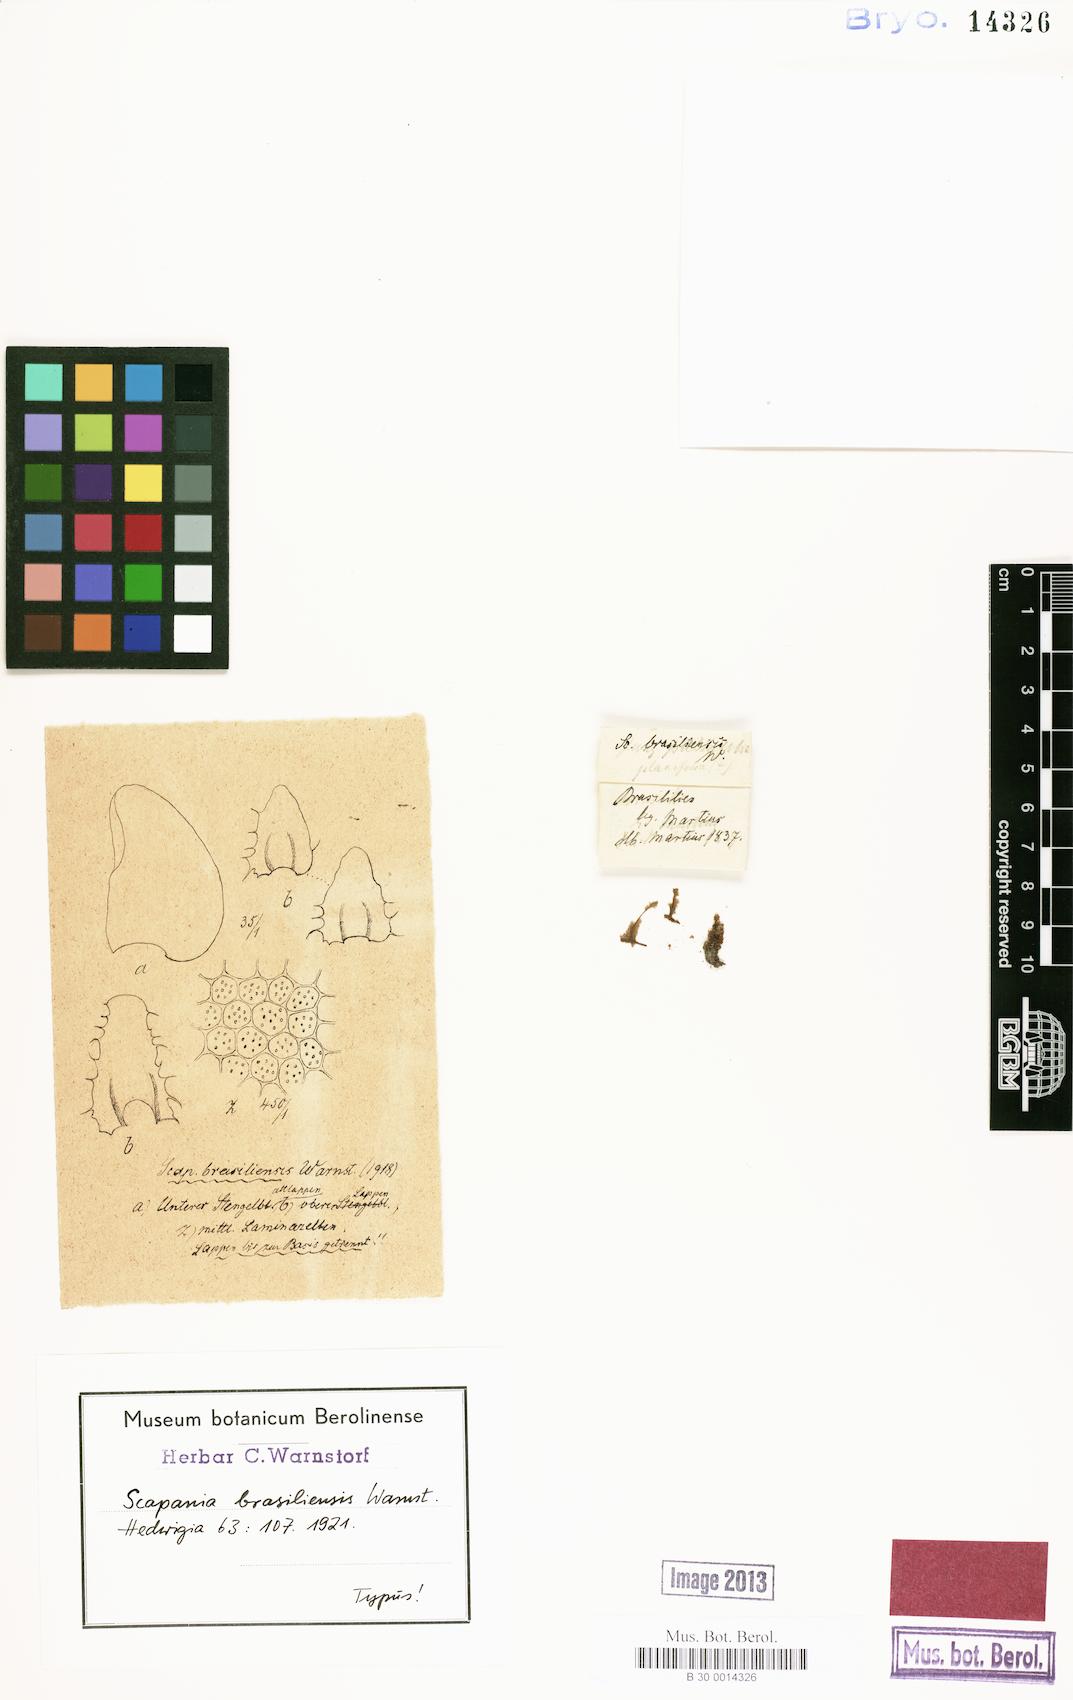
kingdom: Plantae
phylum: Marchantiophyta
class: Jungermanniopsida
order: Jungermanniales
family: Scapaniaceae
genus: Scapania
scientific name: Scapania portoricensis
